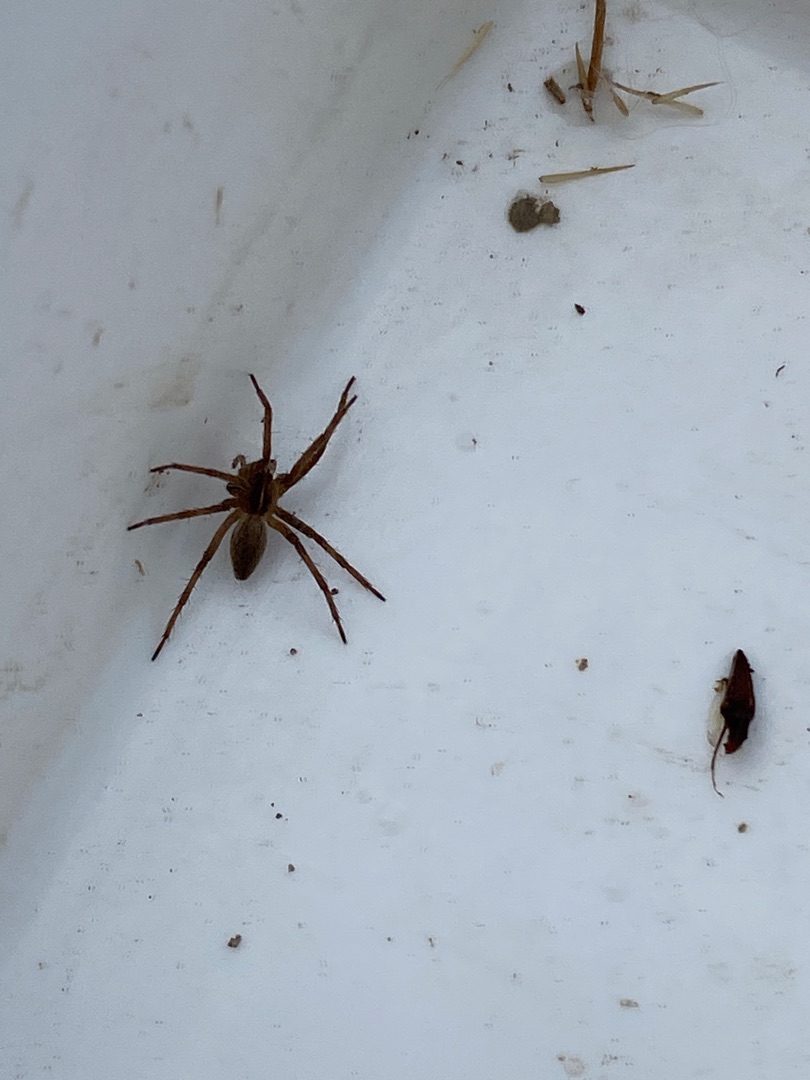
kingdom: Animalia
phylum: Arthropoda
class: Arachnida
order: Araneae
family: Pisauridae
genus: Pisaura
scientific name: Pisaura mirabilis
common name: Almindelig rovedderkop
